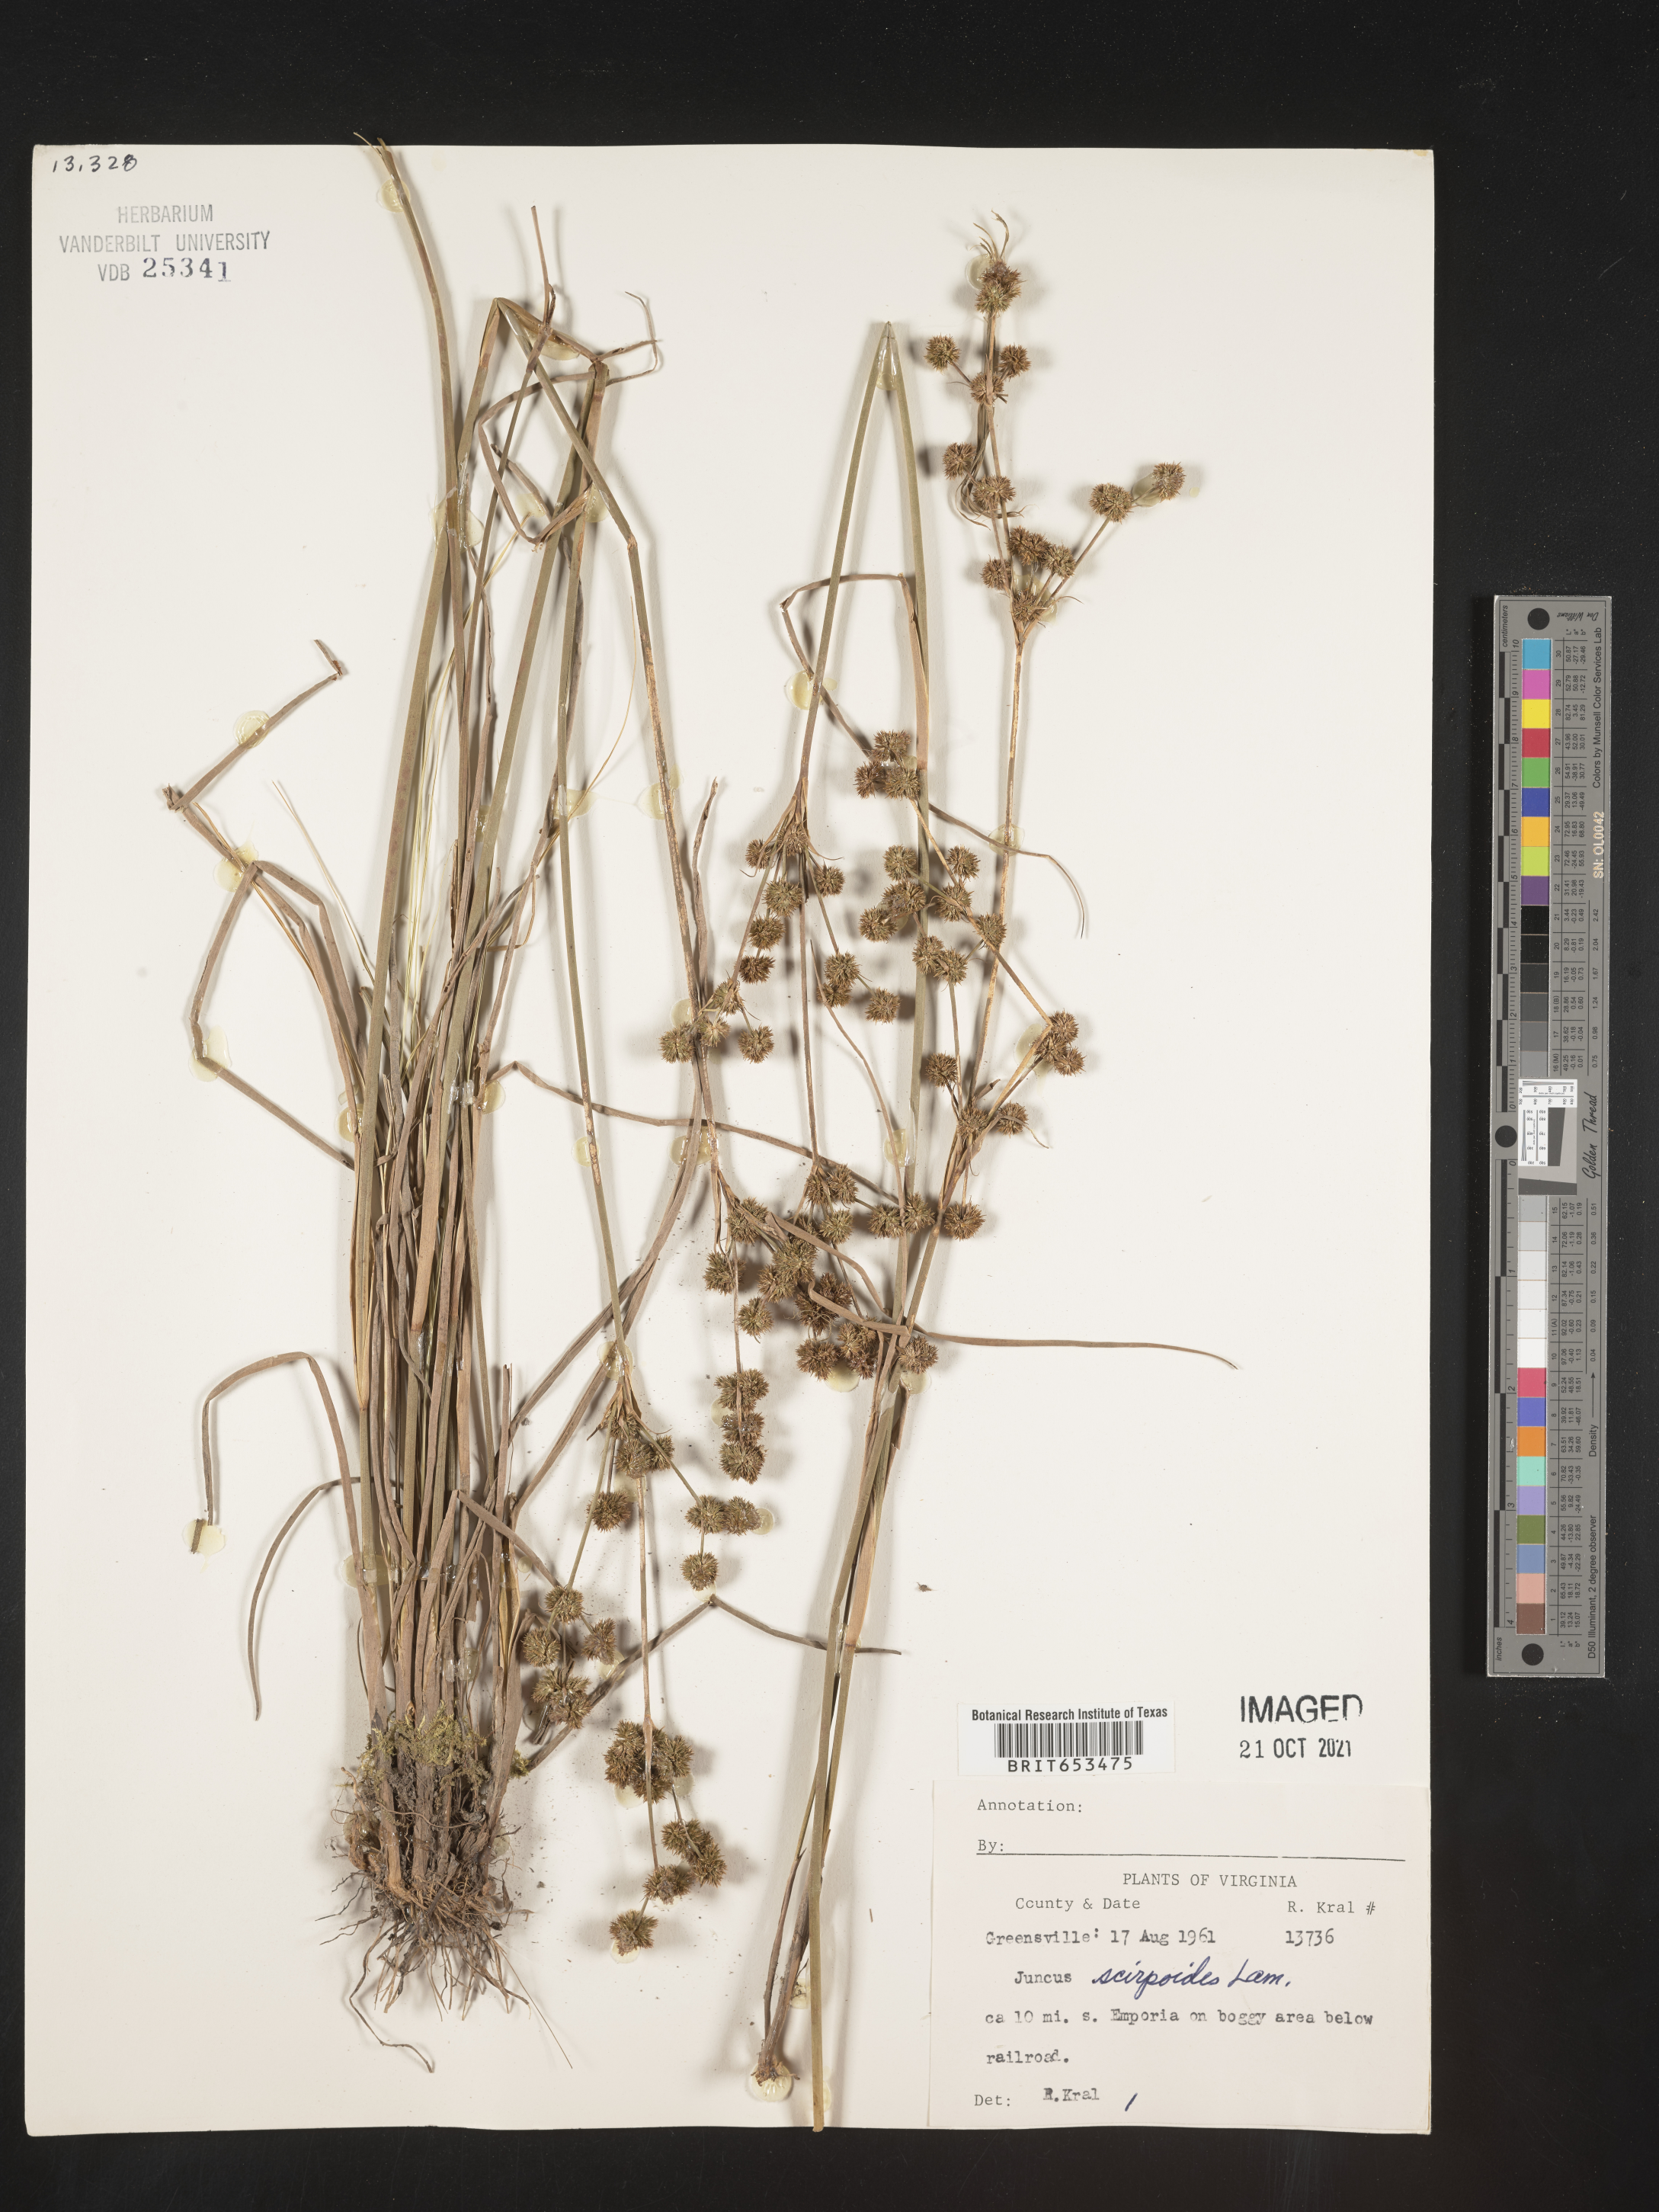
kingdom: Plantae
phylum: Tracheophyta
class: Liliopsida
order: Poales
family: Juncaceae
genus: Juncus
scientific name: Juncus scirpoides
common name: Needlepod rush
